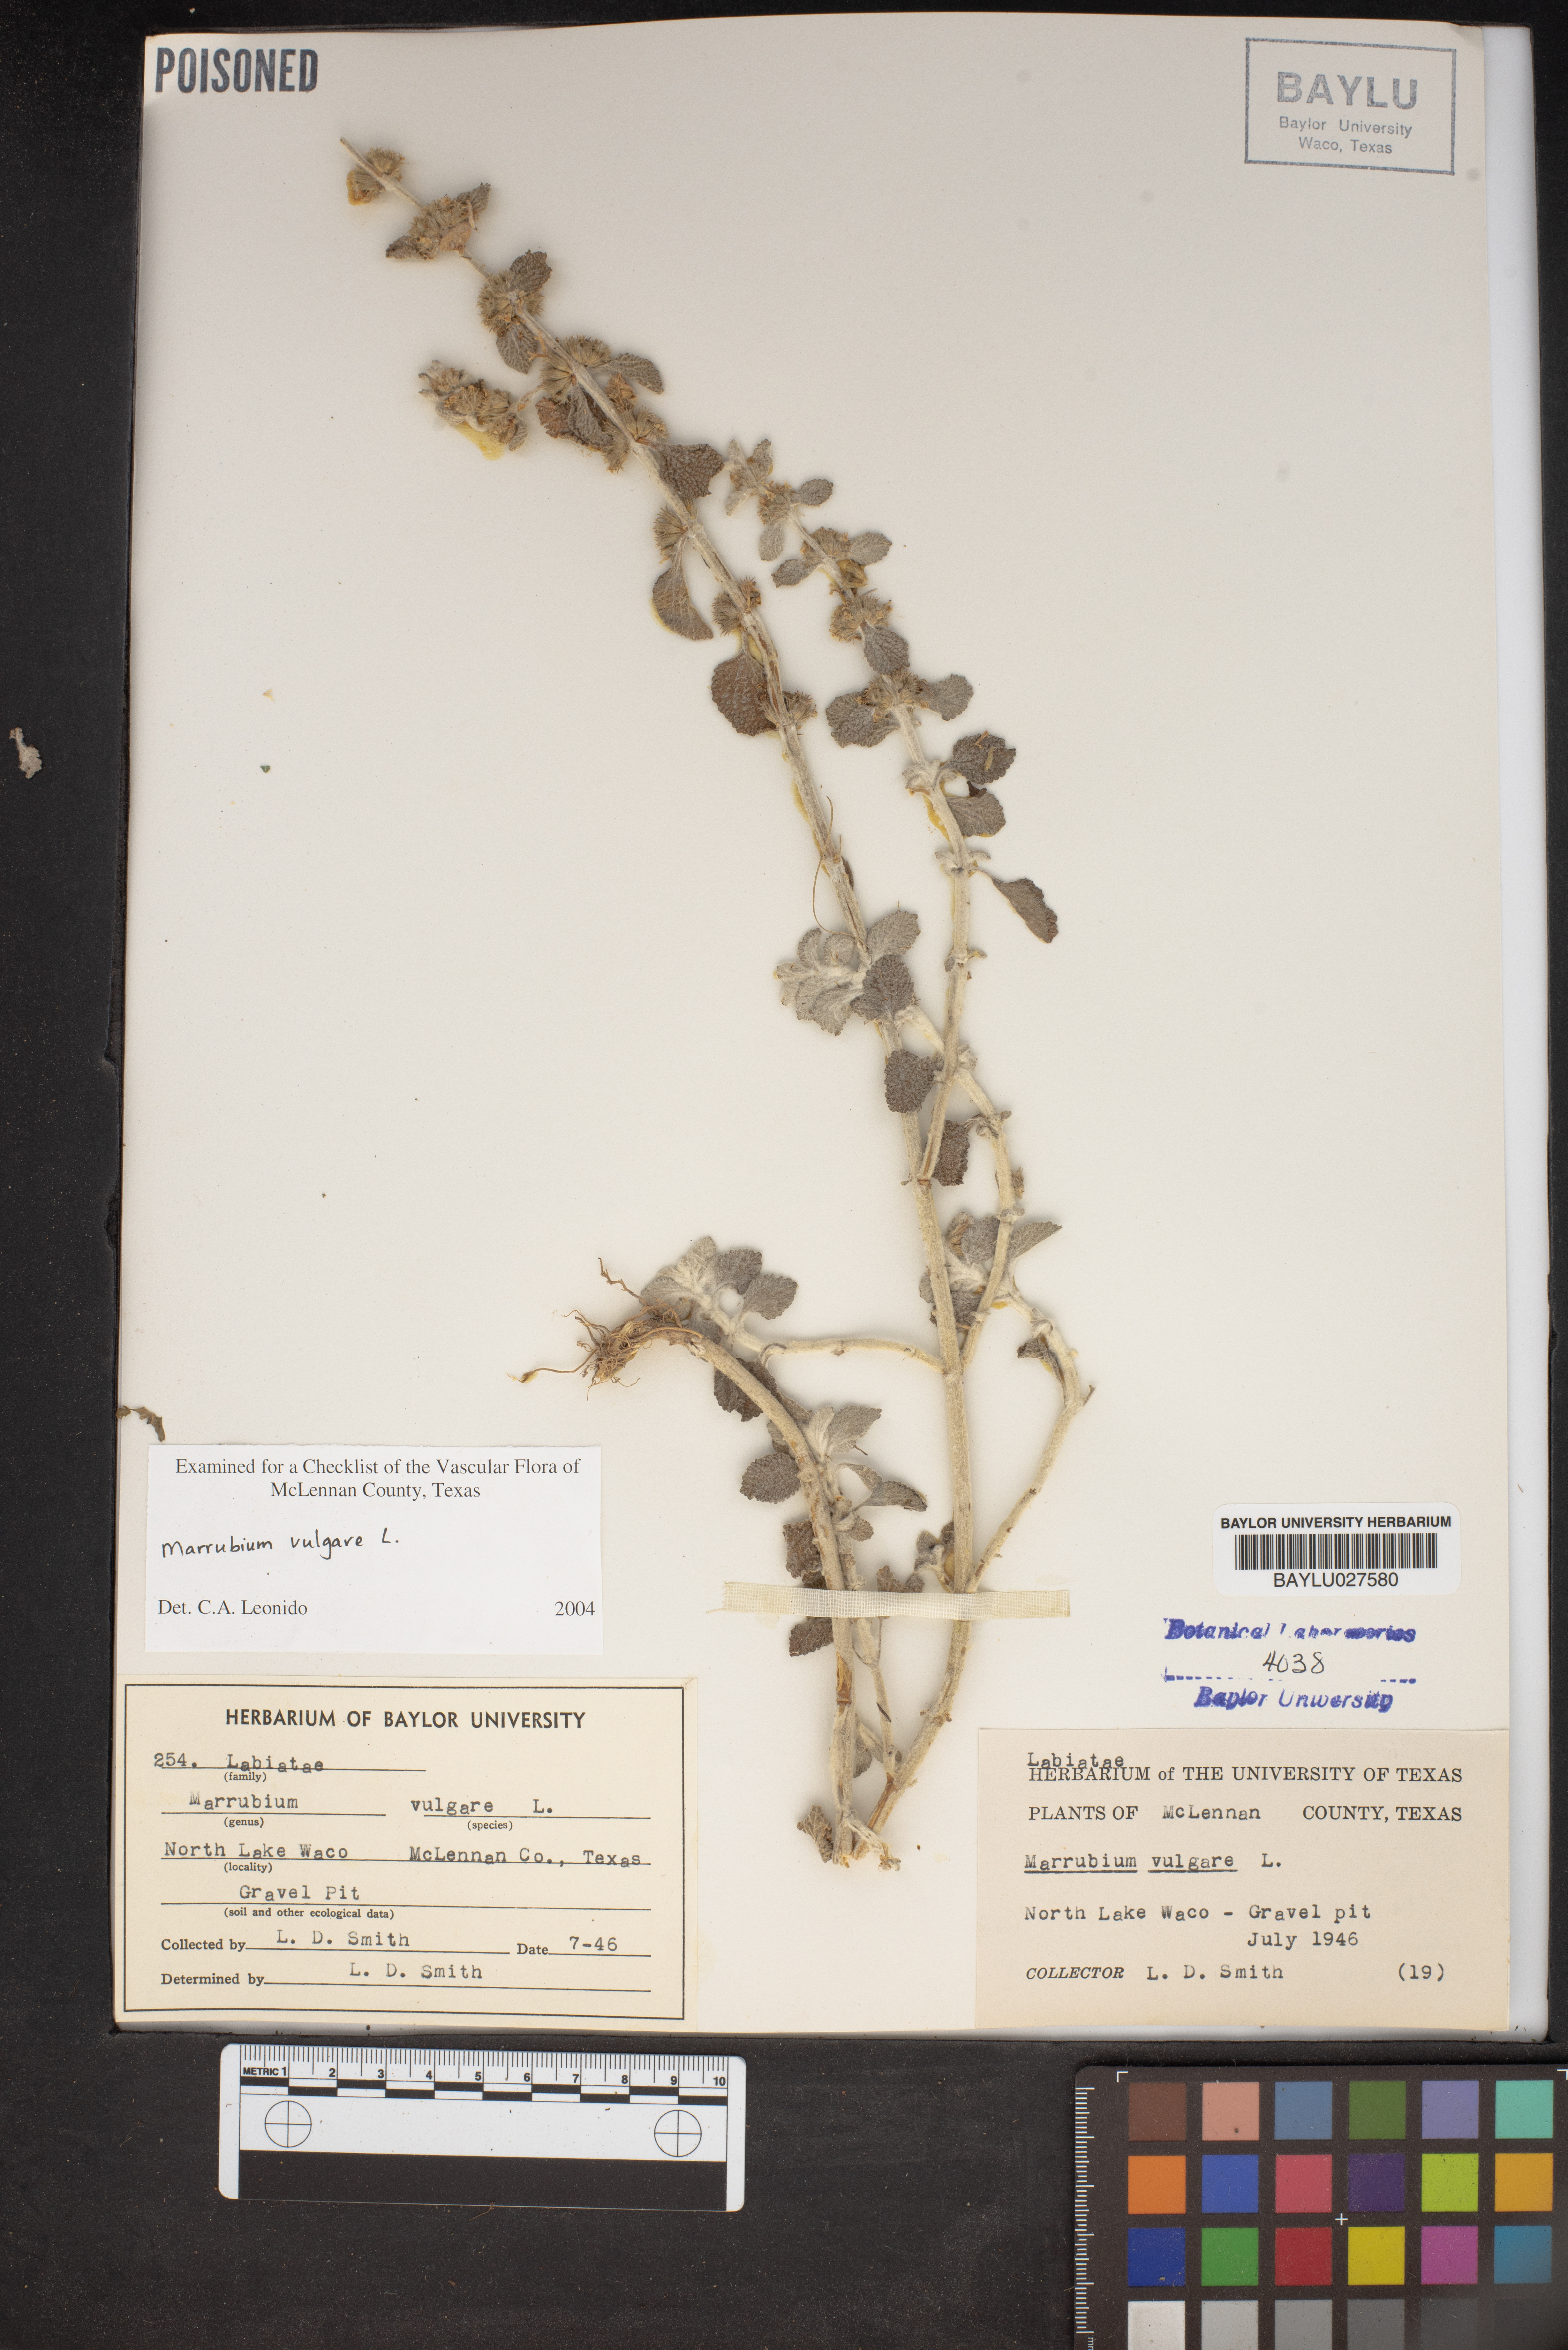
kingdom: Plantae
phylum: Tracheophyta
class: Magnoliopsida
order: Lamiales
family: Lamiaceae
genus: Marrubium
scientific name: Marrubium vulgare
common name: Horehound
